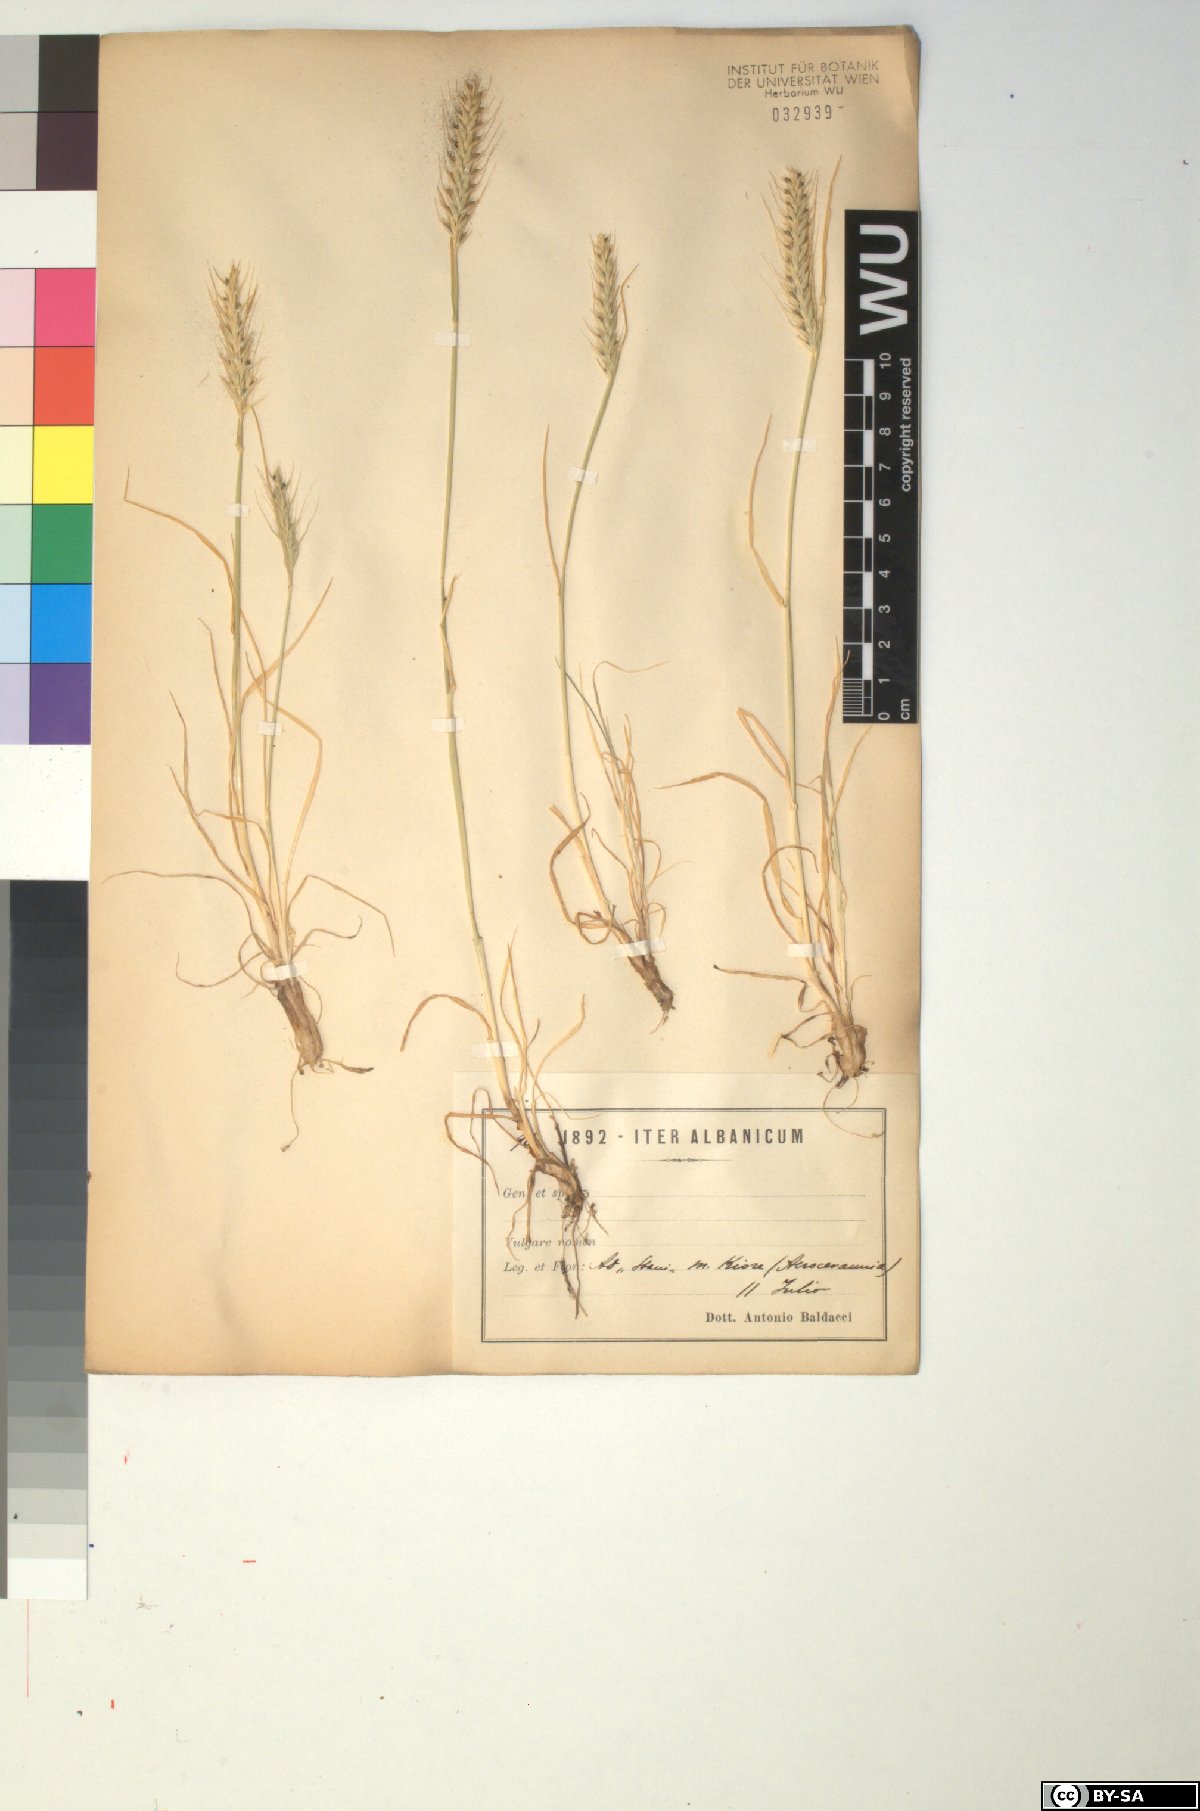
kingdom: Plantae
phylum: Tracheophyta
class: Liliopsida
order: Poales
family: Poaceae
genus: Triticum
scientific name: Triticum monococcum
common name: Einkorn
